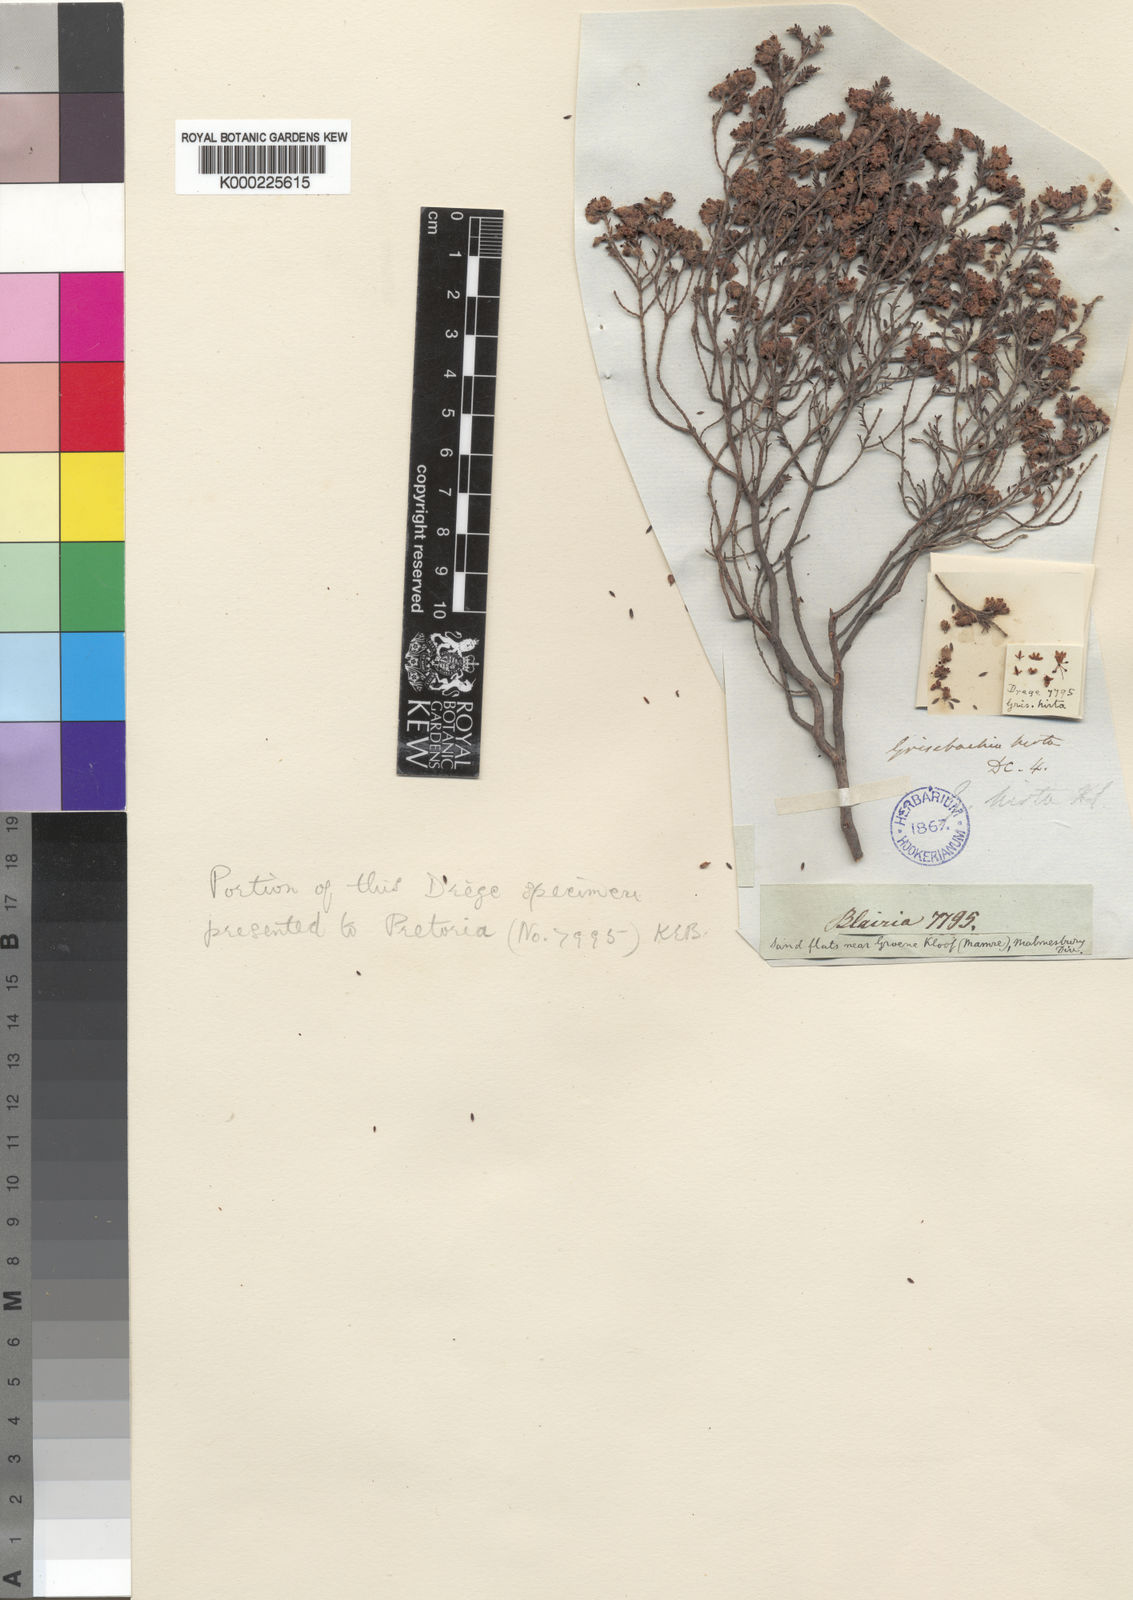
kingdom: Plantae
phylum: Tracheophyta
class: Magnoliopsida
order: Ericales
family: Ericaceae
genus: Erica
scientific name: Erica plumosa
